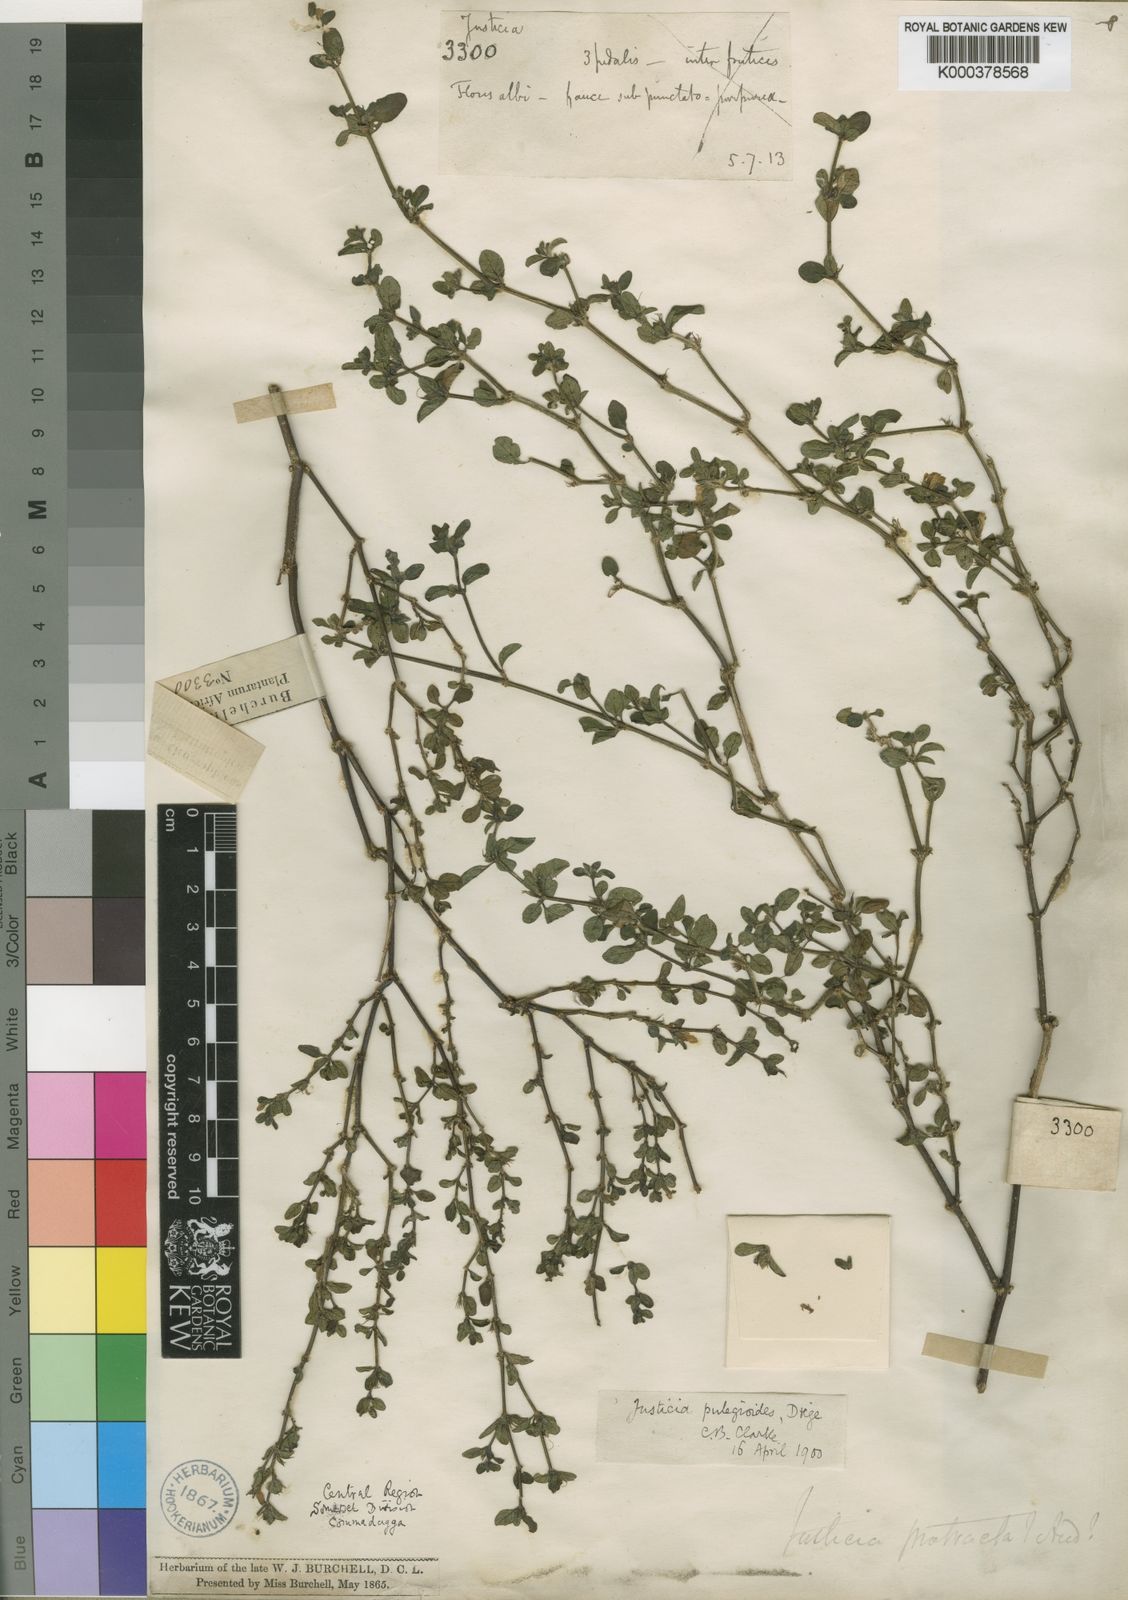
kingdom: Plantae
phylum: Tracheophyta
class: Magnoliopsida
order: Lamiales
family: Acanthaceae
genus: Justicia
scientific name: Justicia protracta
